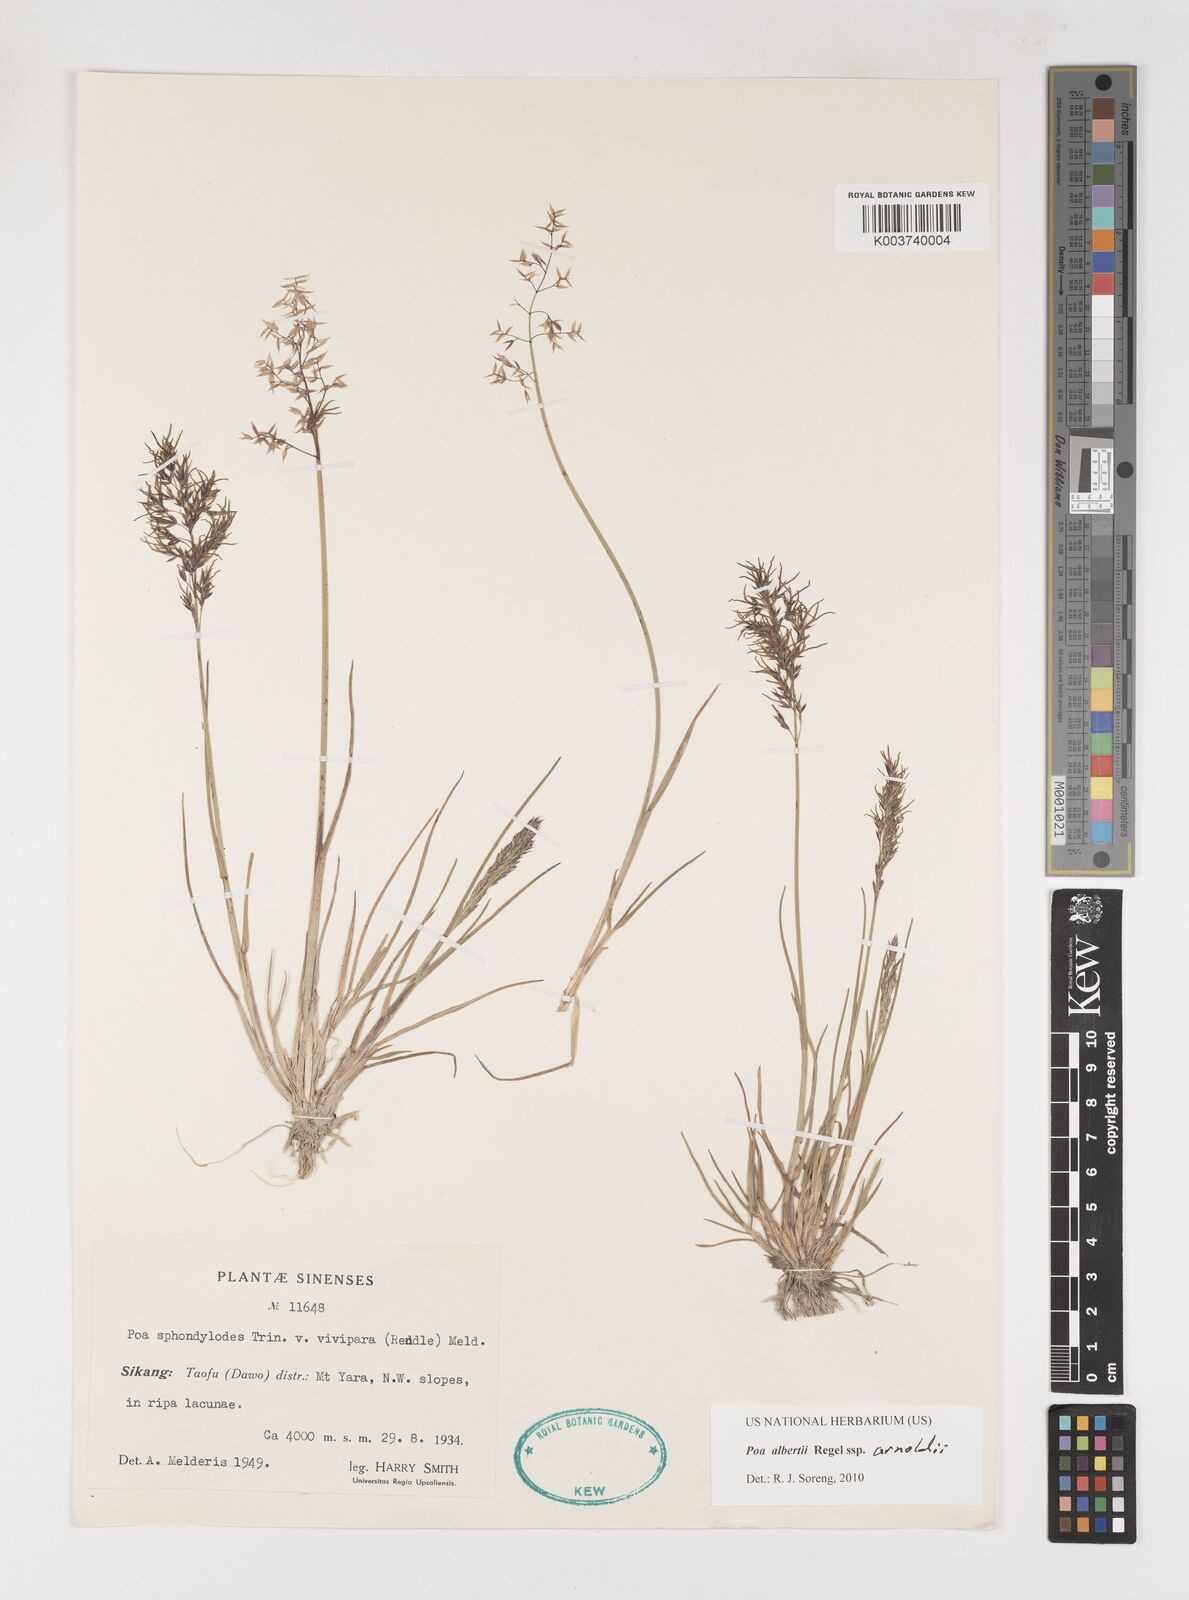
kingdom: Plantae
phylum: Tracheophyta
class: Liliopsida
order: Poales
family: Poaceae
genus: Poa
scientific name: Poa alberti
